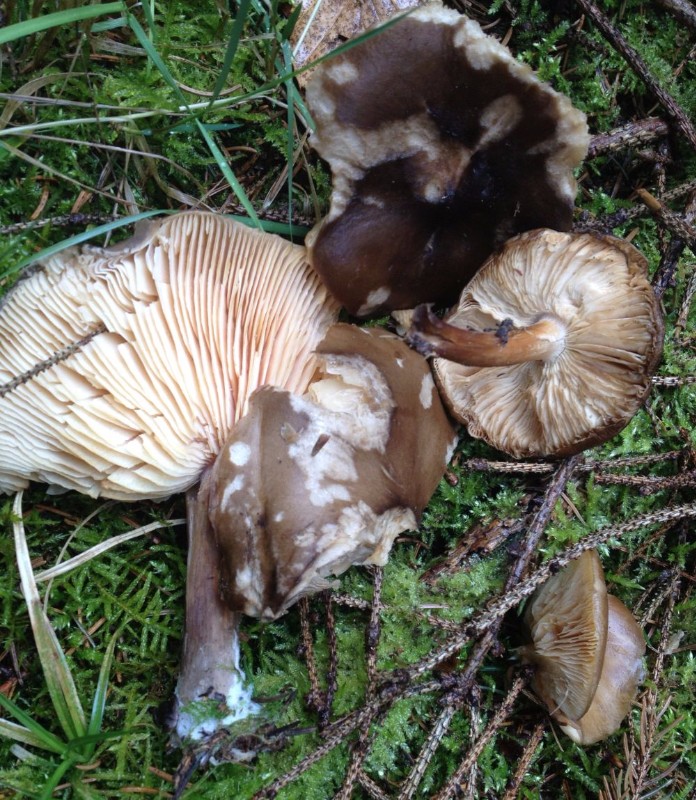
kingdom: Fungi
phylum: Basidiomycota
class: Agaricomycetes
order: Agaricales
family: Tricholomataceae
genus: Melanoleuca
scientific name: Melanoleuca cognata
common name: gyldengrå munkehat
